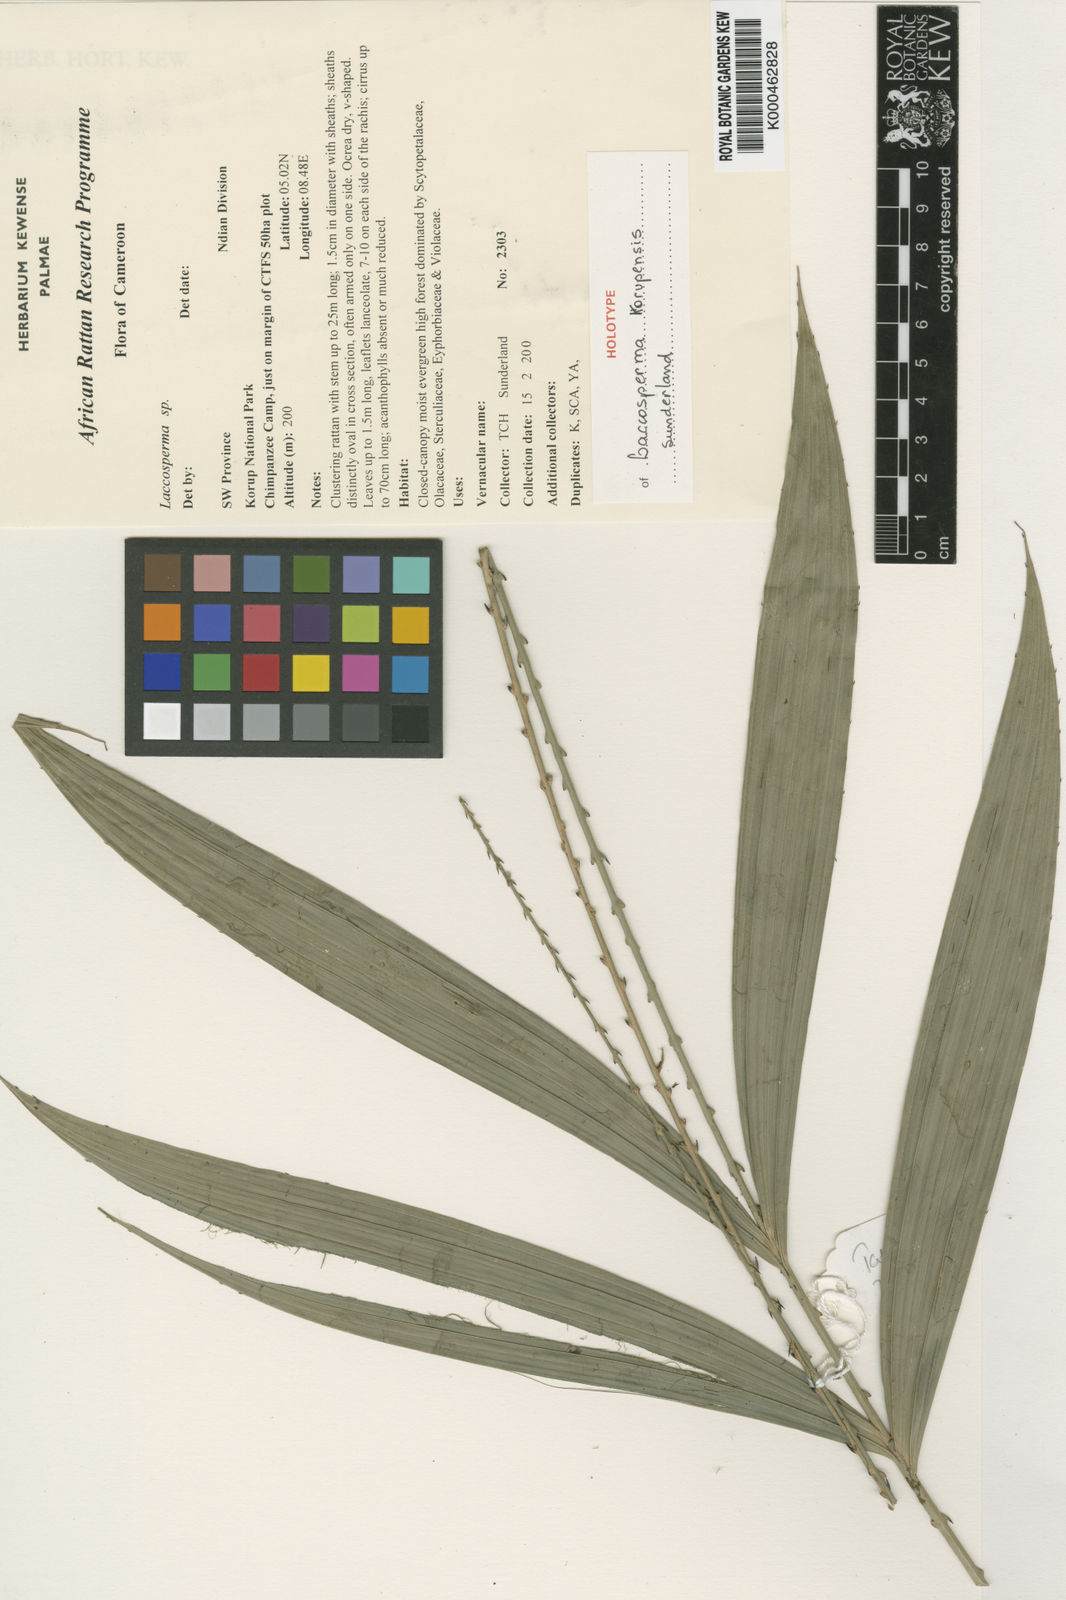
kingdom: Plantae
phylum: Tracheophyta
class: Liliopsida
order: Arecales
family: Arecaceae
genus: Laccosperma
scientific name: Laccosperma
